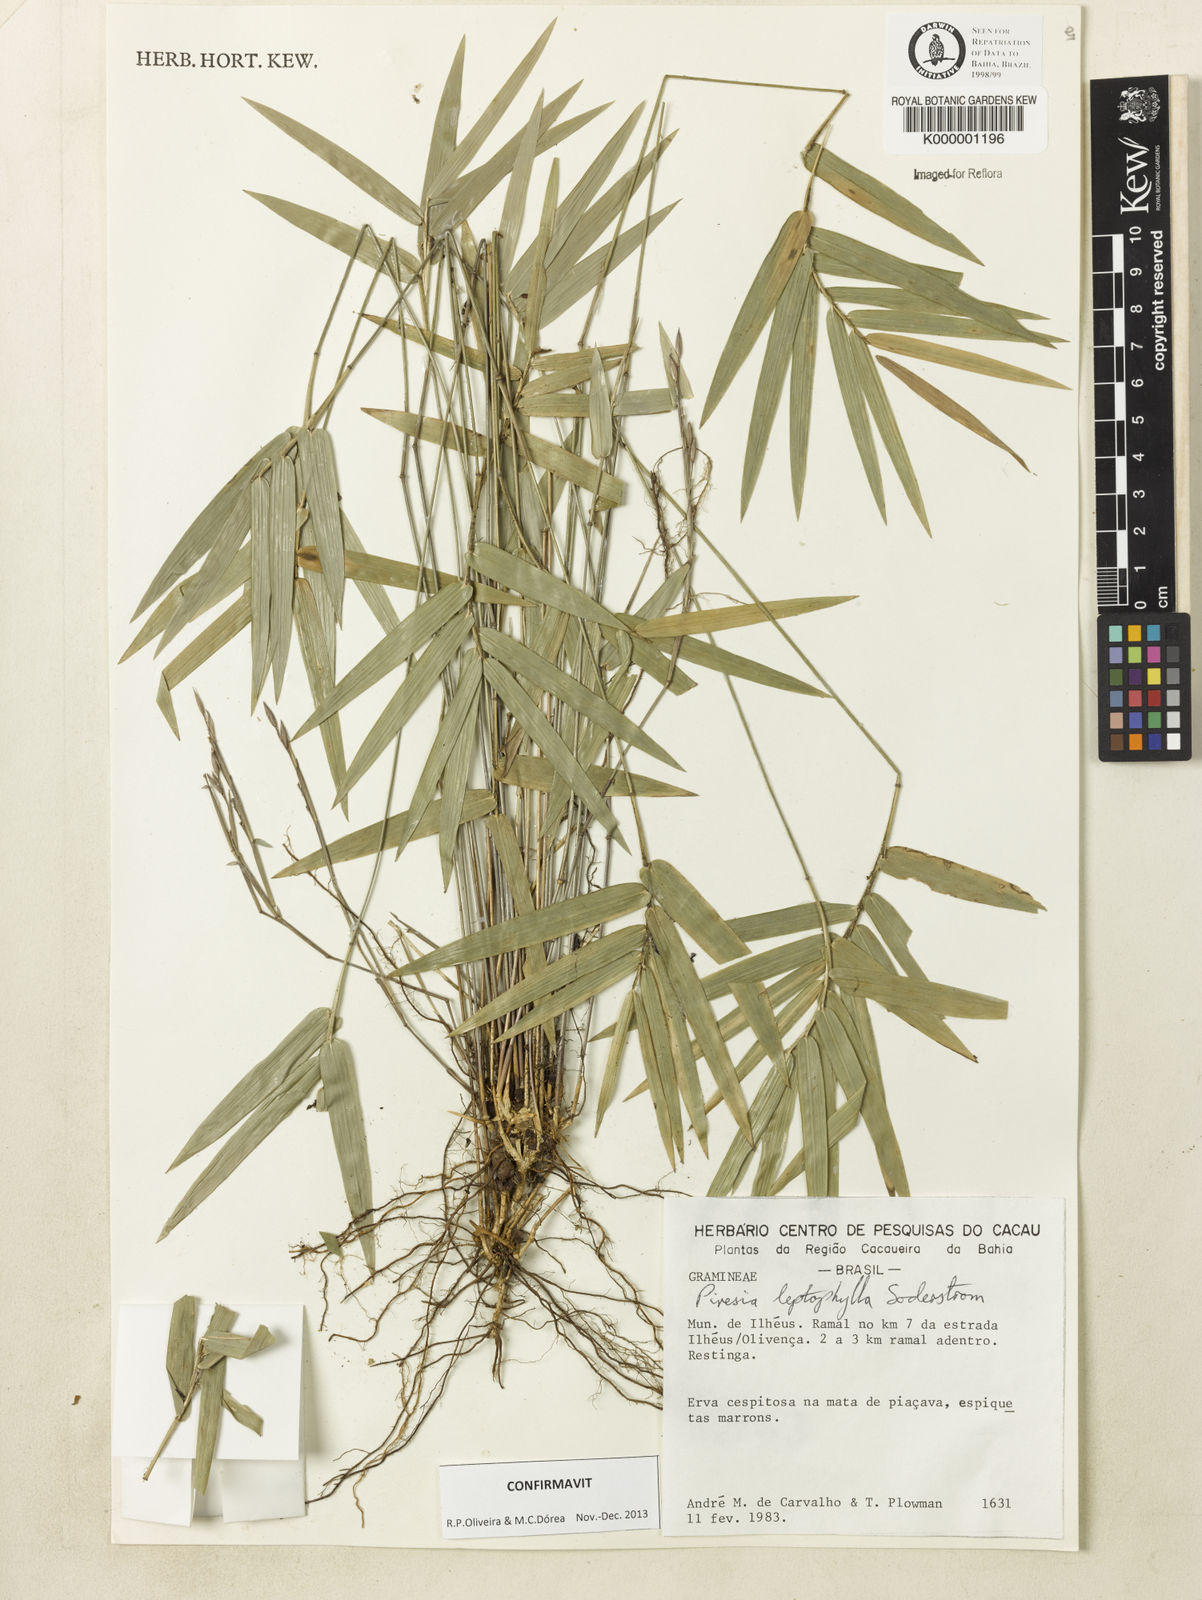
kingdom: Plantae
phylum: Tracheophyta
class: Liliopsida
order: Poales
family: Poaceae
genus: Piresia
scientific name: Piresia leptophylla
